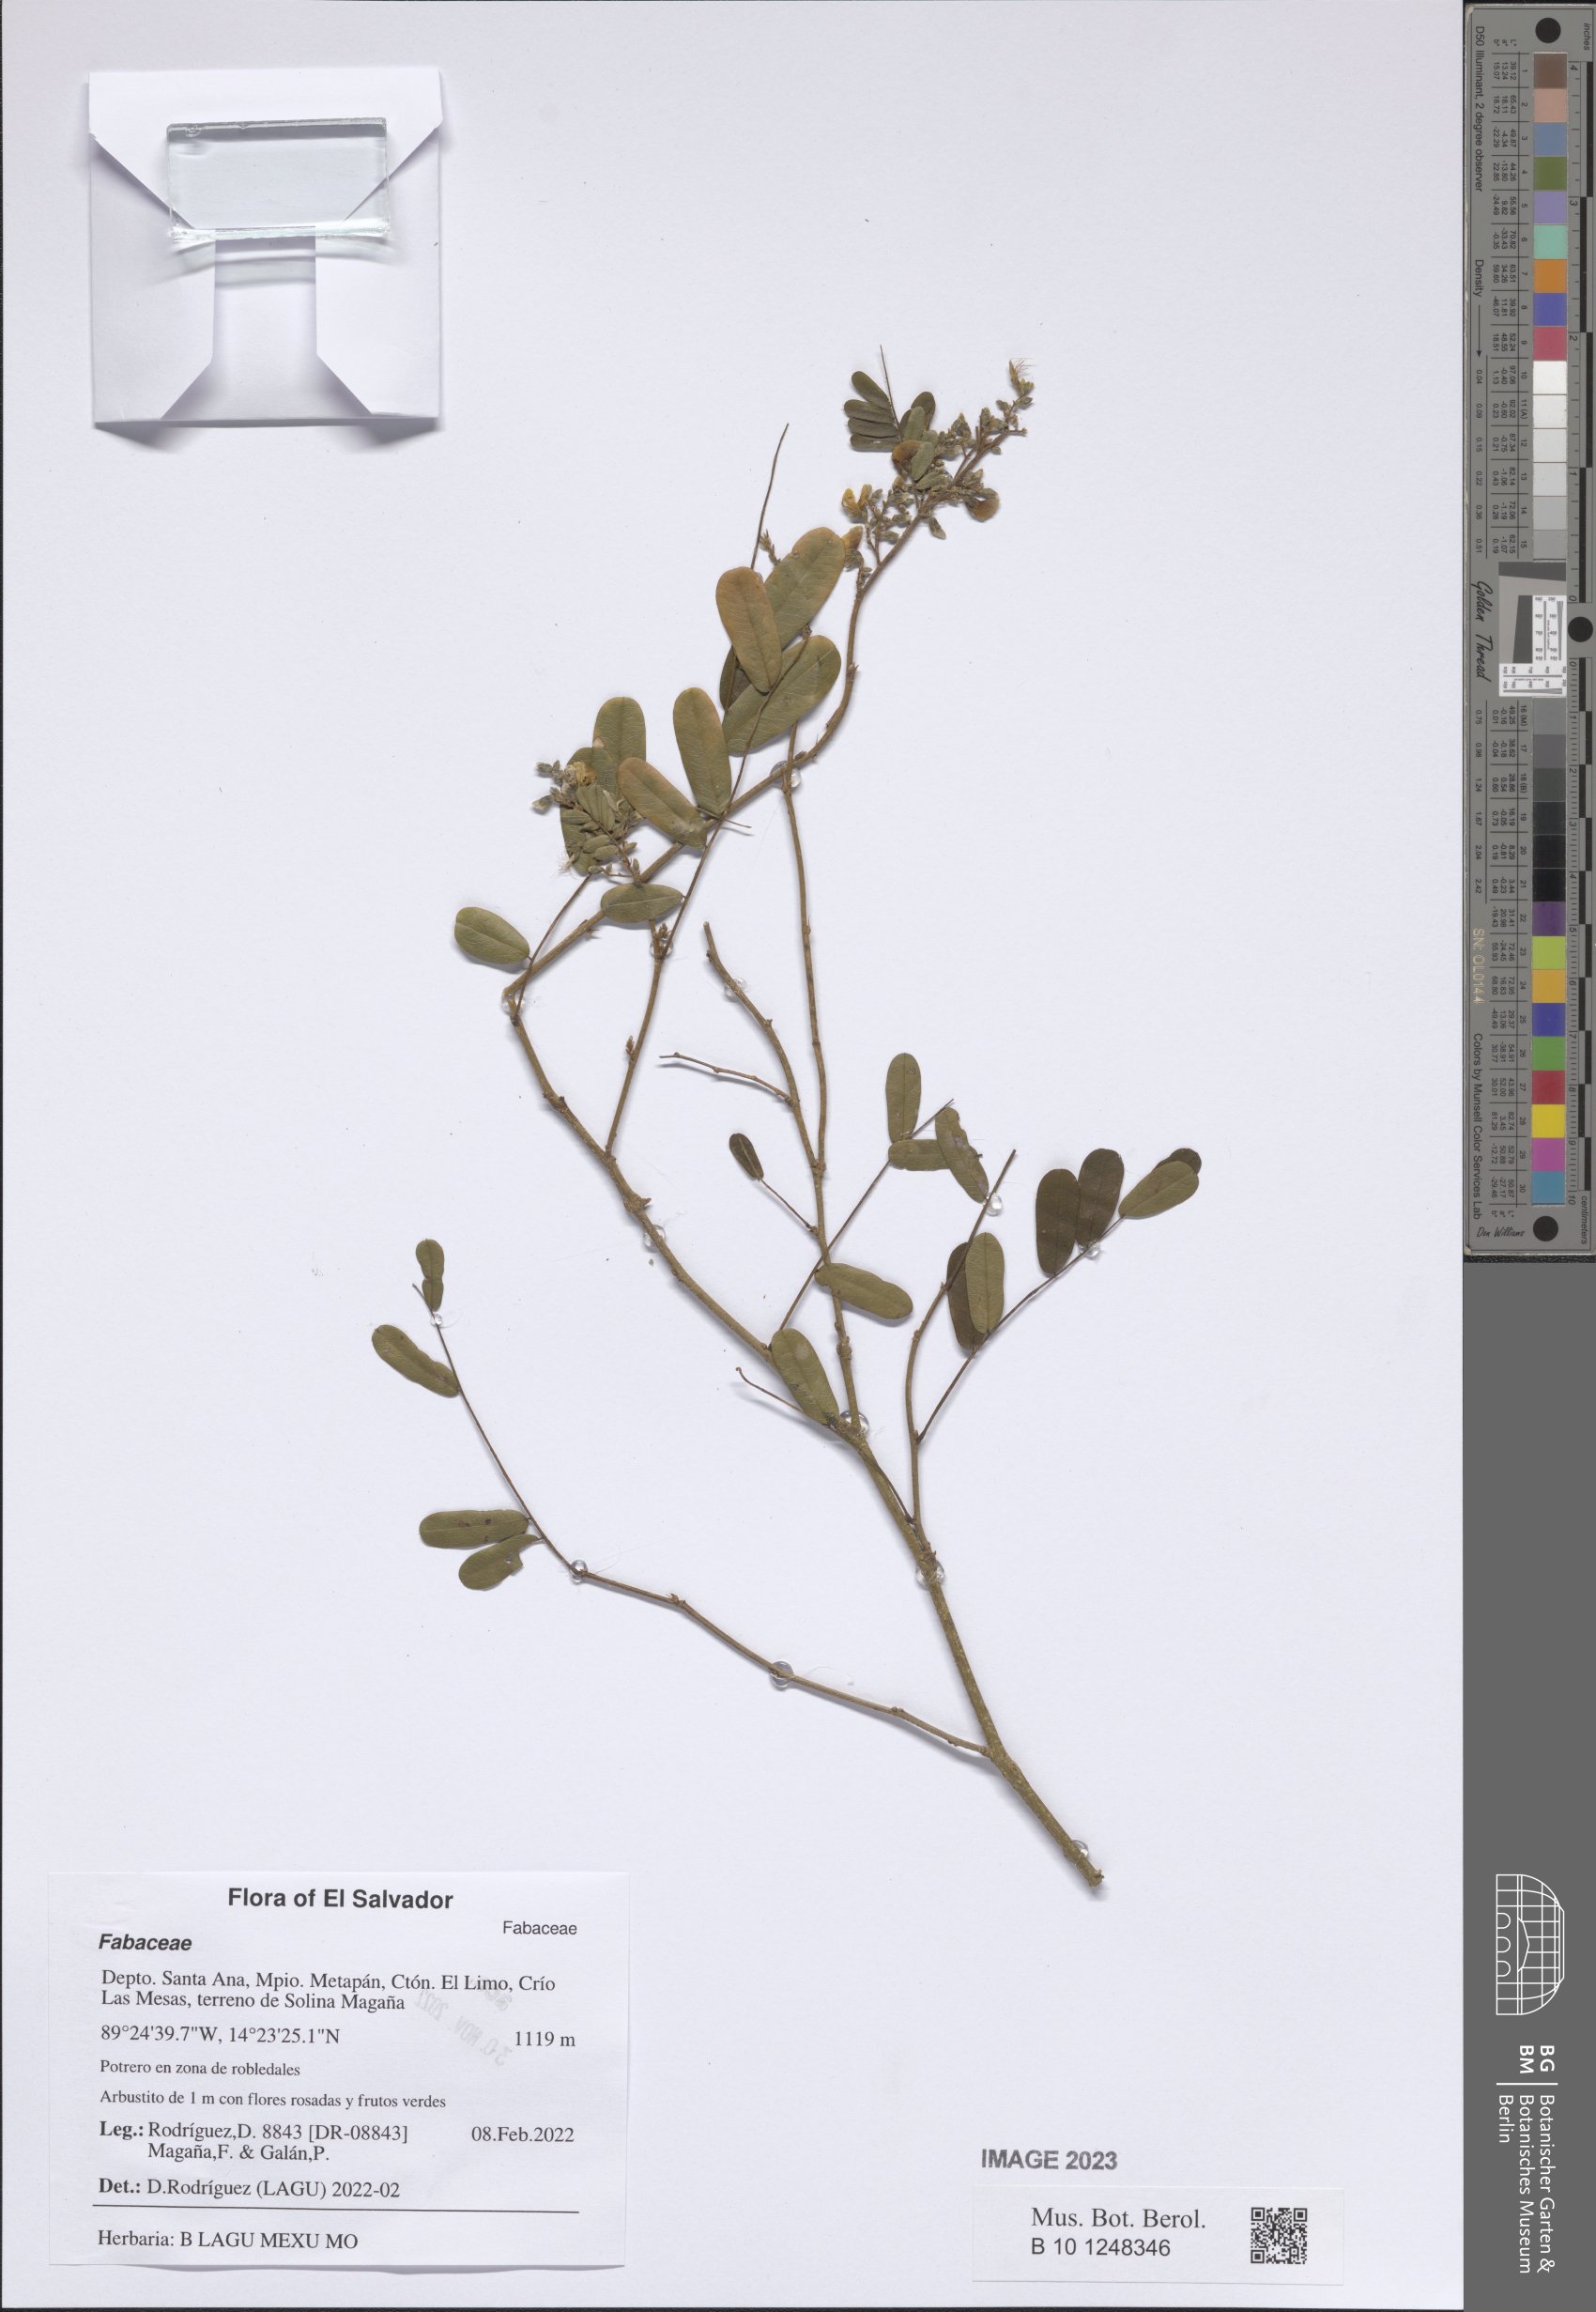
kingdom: Plantae
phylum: Tracheophyta
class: Magnoliopsida
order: Fabales
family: Fabaceae
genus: Ctenodon
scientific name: Ctenodon nicaraguensis
